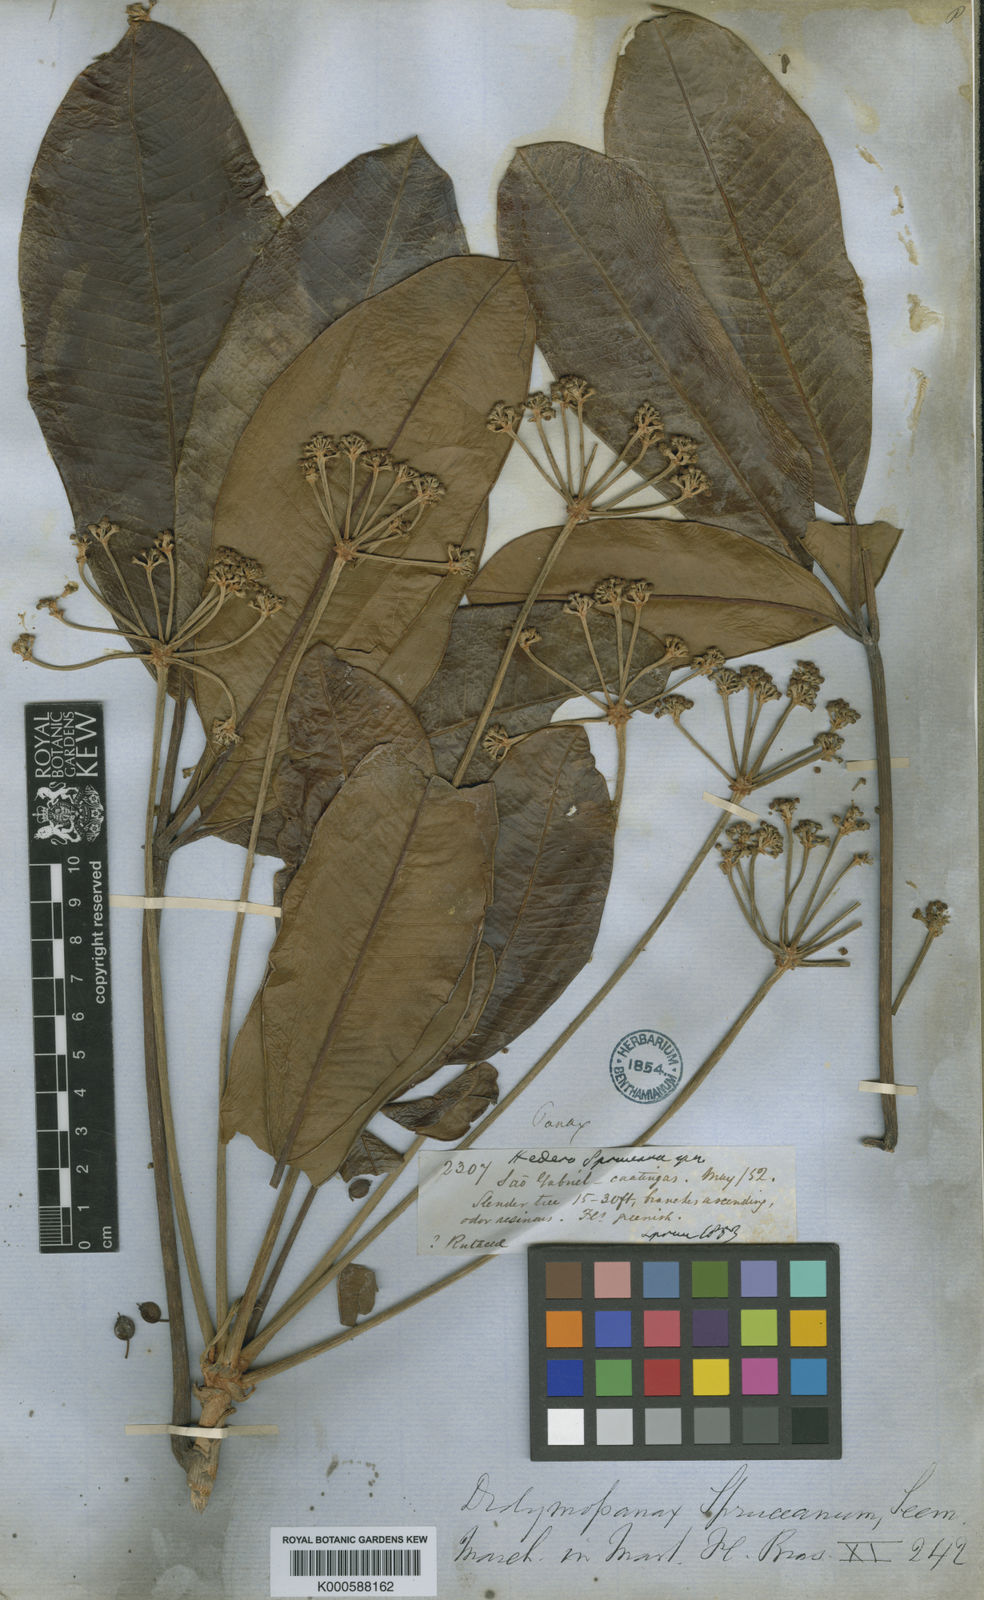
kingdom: Plantae
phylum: Tracheophyta
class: Magnoliopsida
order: Apiales
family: Araliaceae
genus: Crepinella
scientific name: Crepinella spruceana
